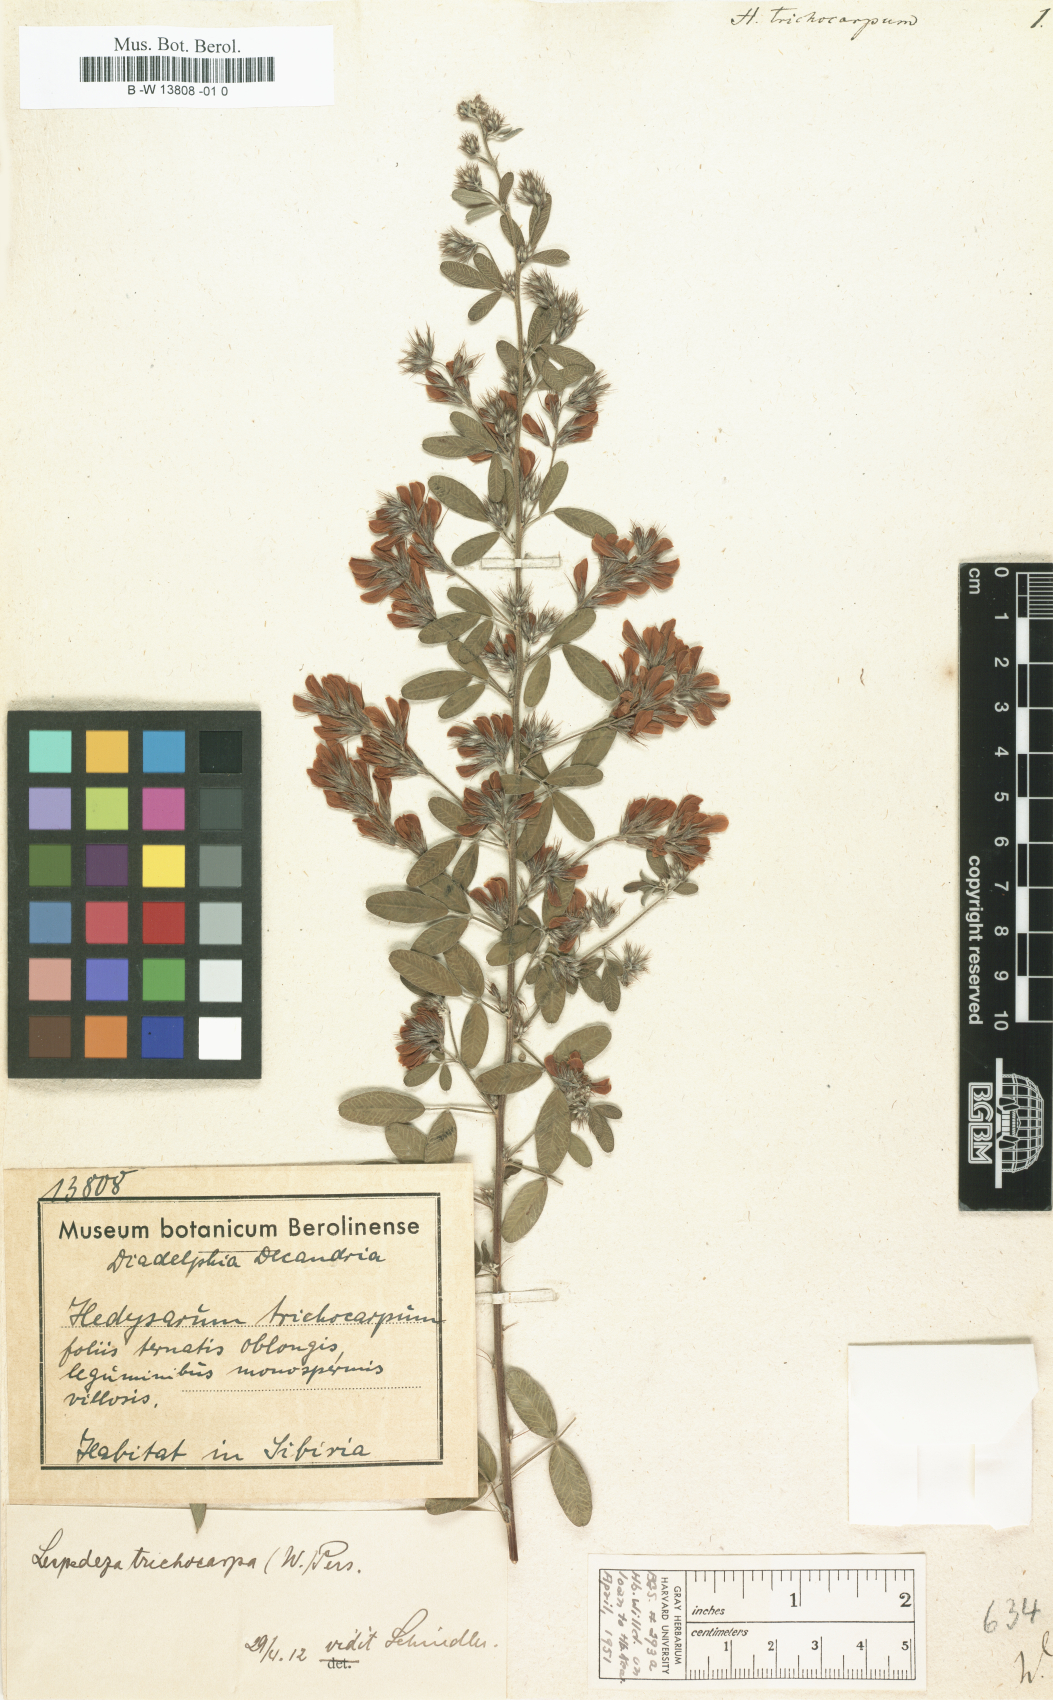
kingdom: Plantae
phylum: Tracheophyta
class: Magnoliopsida
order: Fabales
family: Fabaceae
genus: Onobrychis
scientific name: Onobrychis aequidentata
